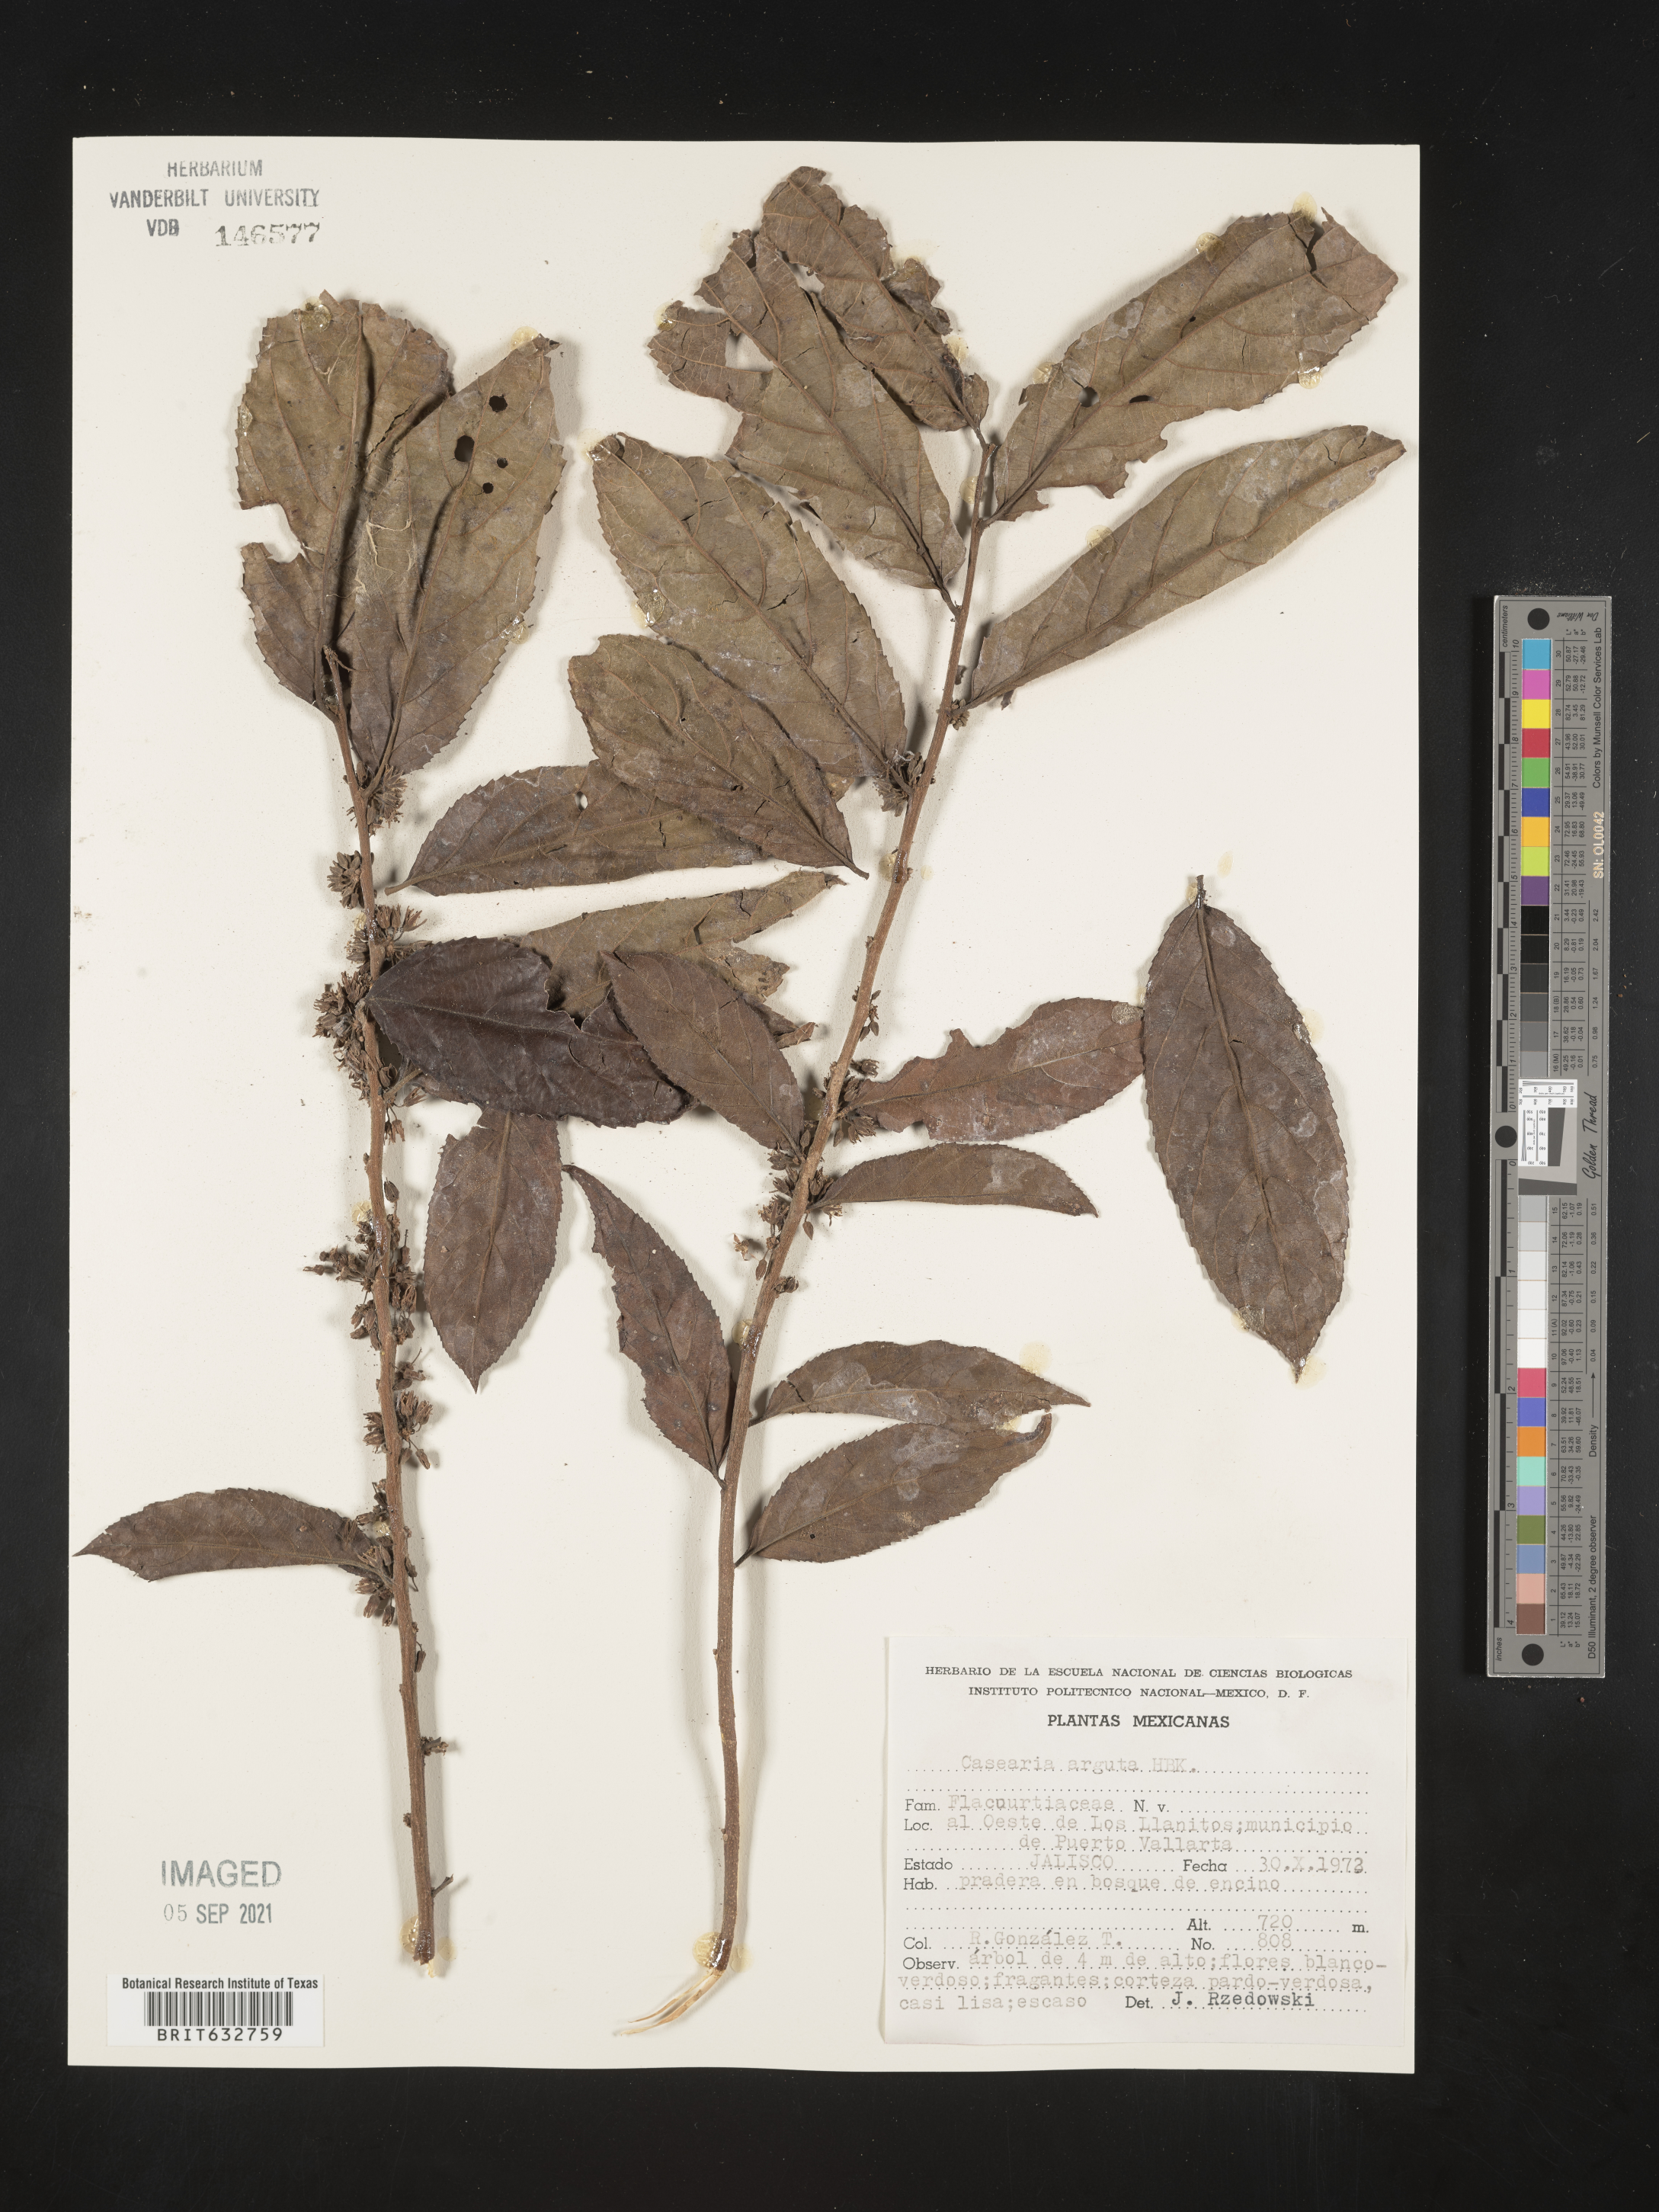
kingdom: Plantae
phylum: Tracheophyta
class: Magnoliopsida
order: Malpighiales
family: Salicaceae
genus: Casearia
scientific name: Casearia
